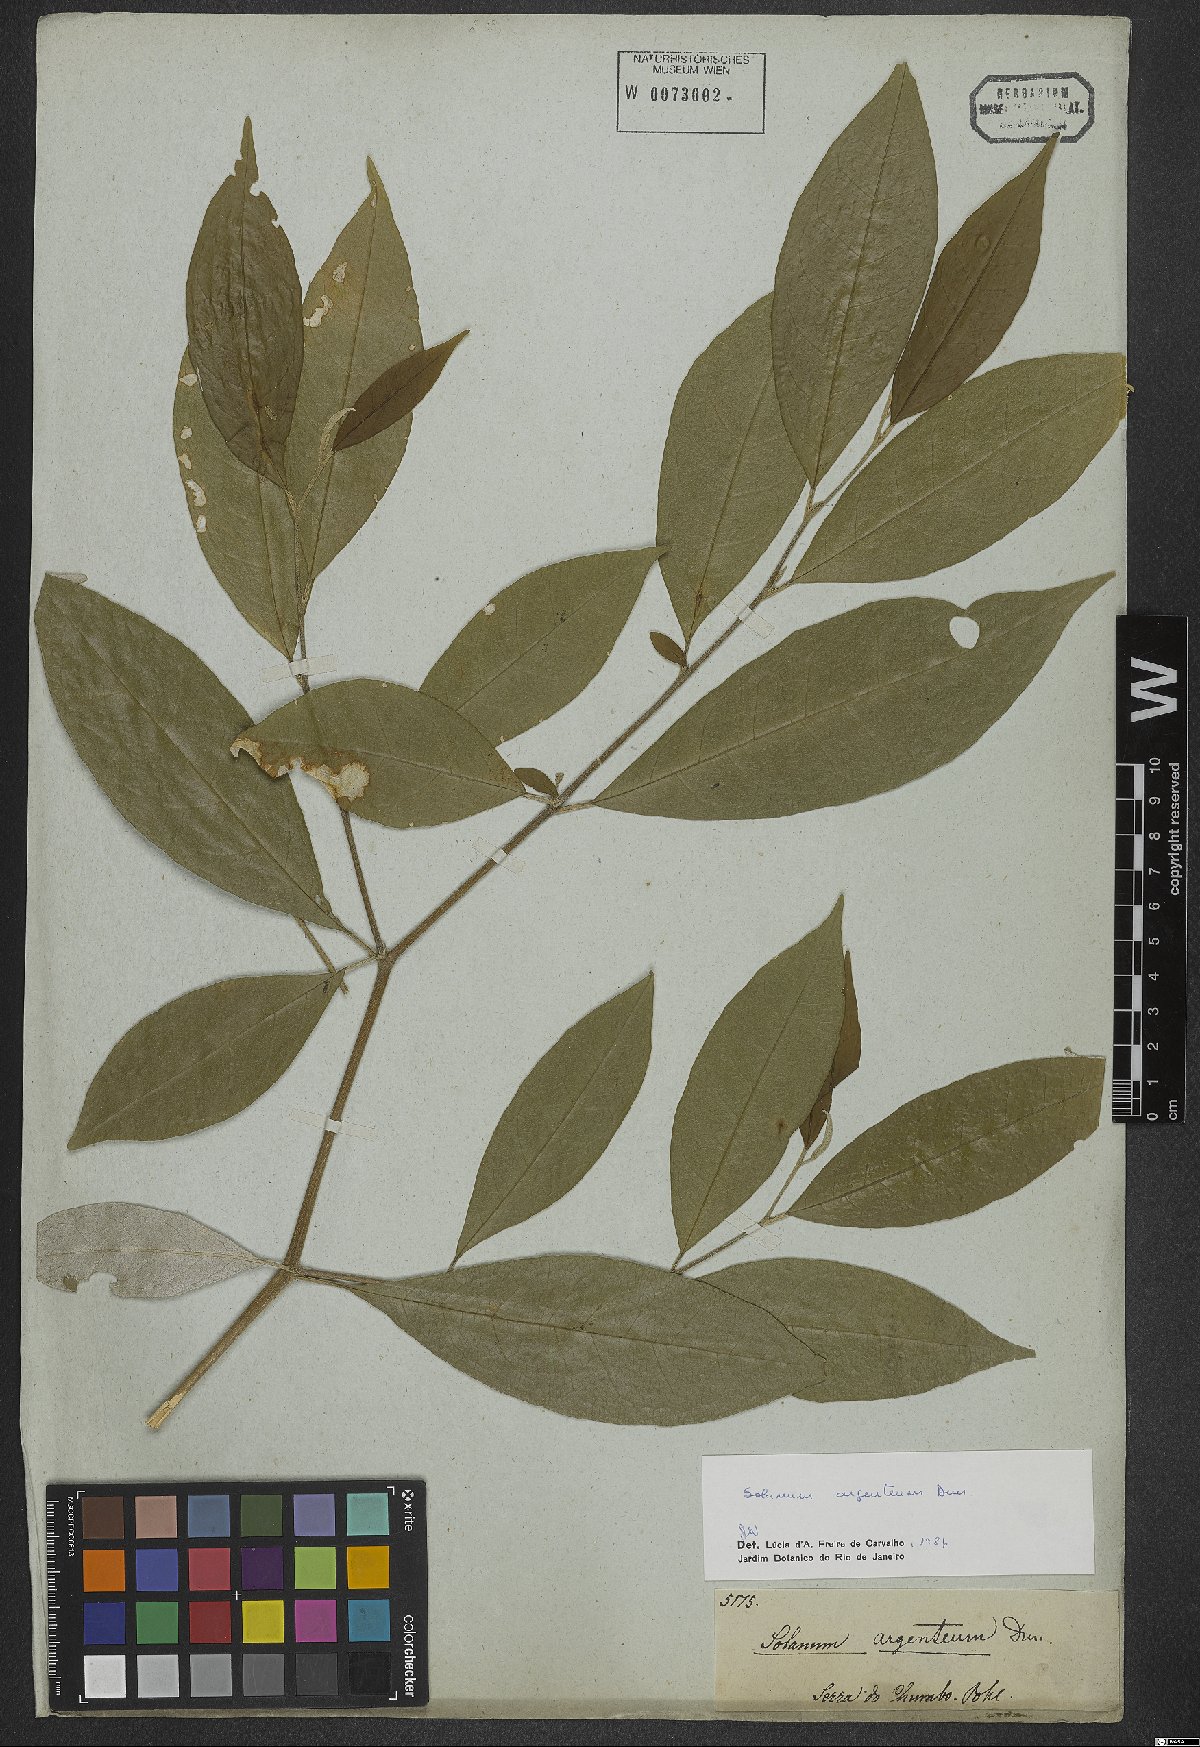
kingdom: Plantae
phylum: Tracheophyta
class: Magnoliopsida
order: Solanales
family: Solanaceae
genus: Solanum
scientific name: Solanum swartzianum
